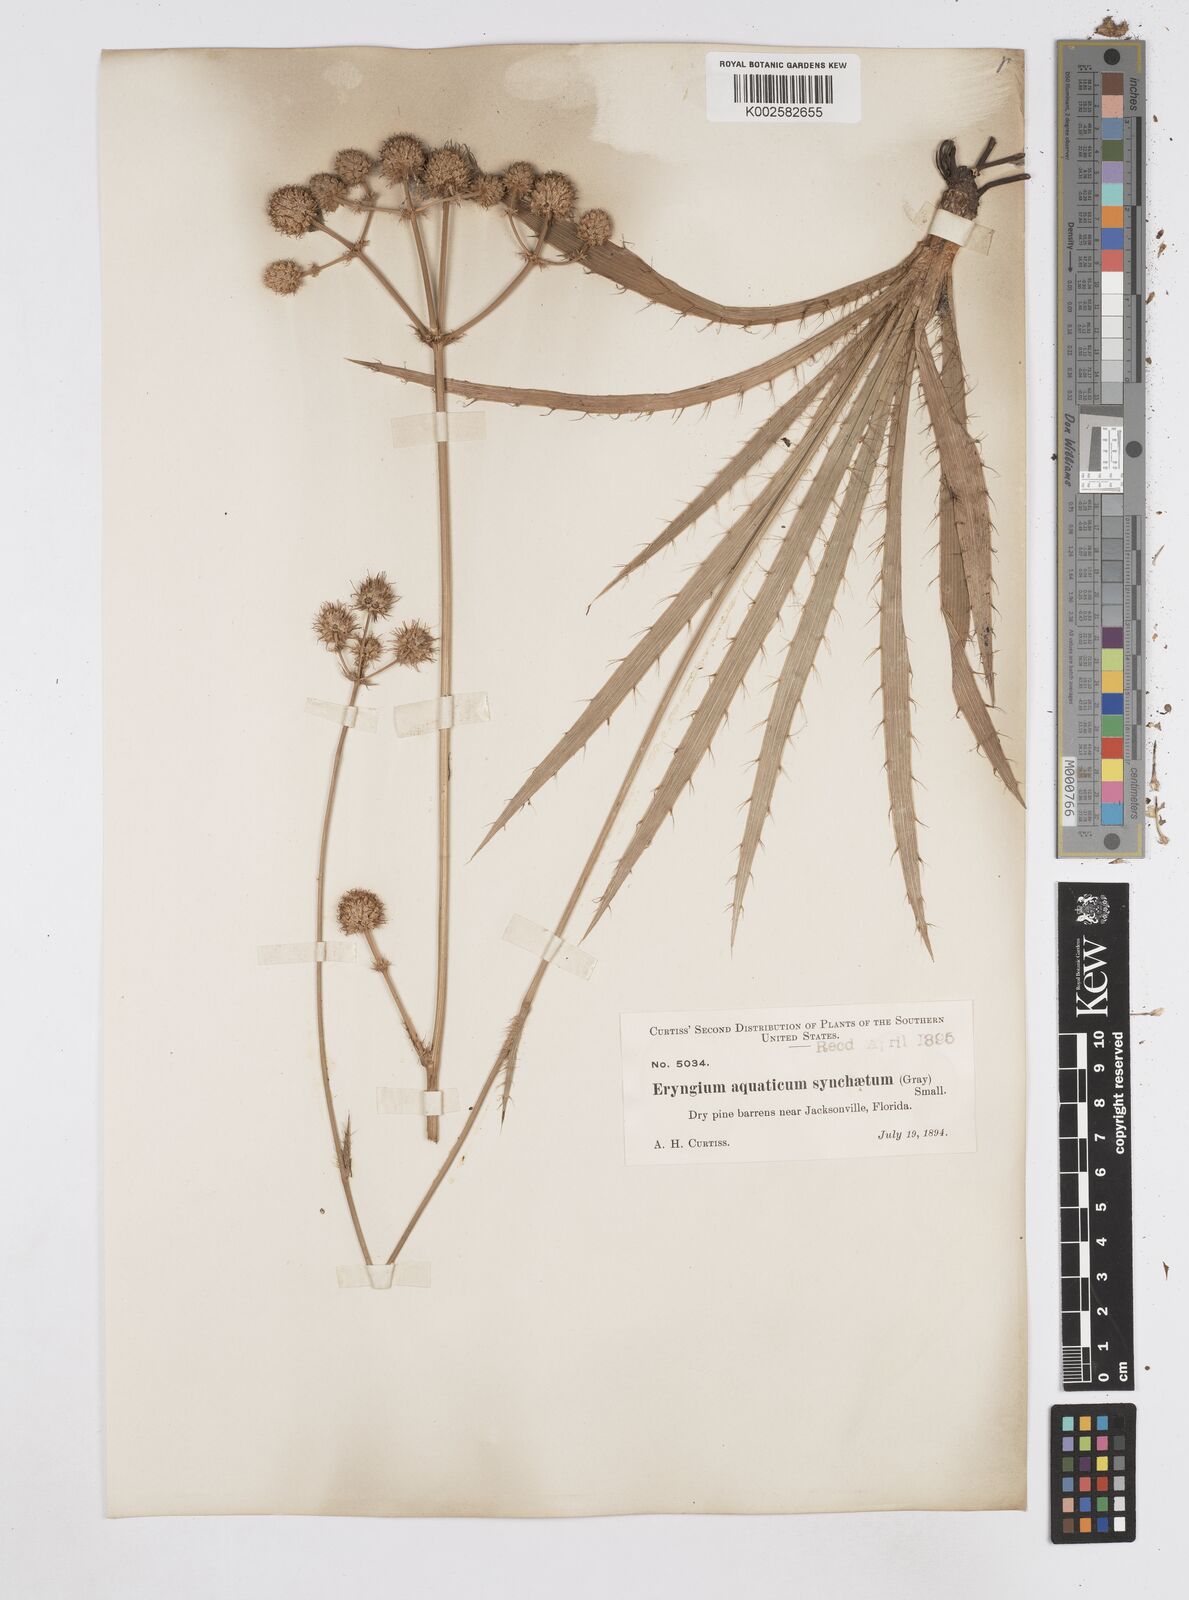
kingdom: Plantae
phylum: Tracheophyta
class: Magnoliopsida
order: Apiales
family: Apiaceae
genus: Eryngium
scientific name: Eryngium yuccifolium
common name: Button eryngo
